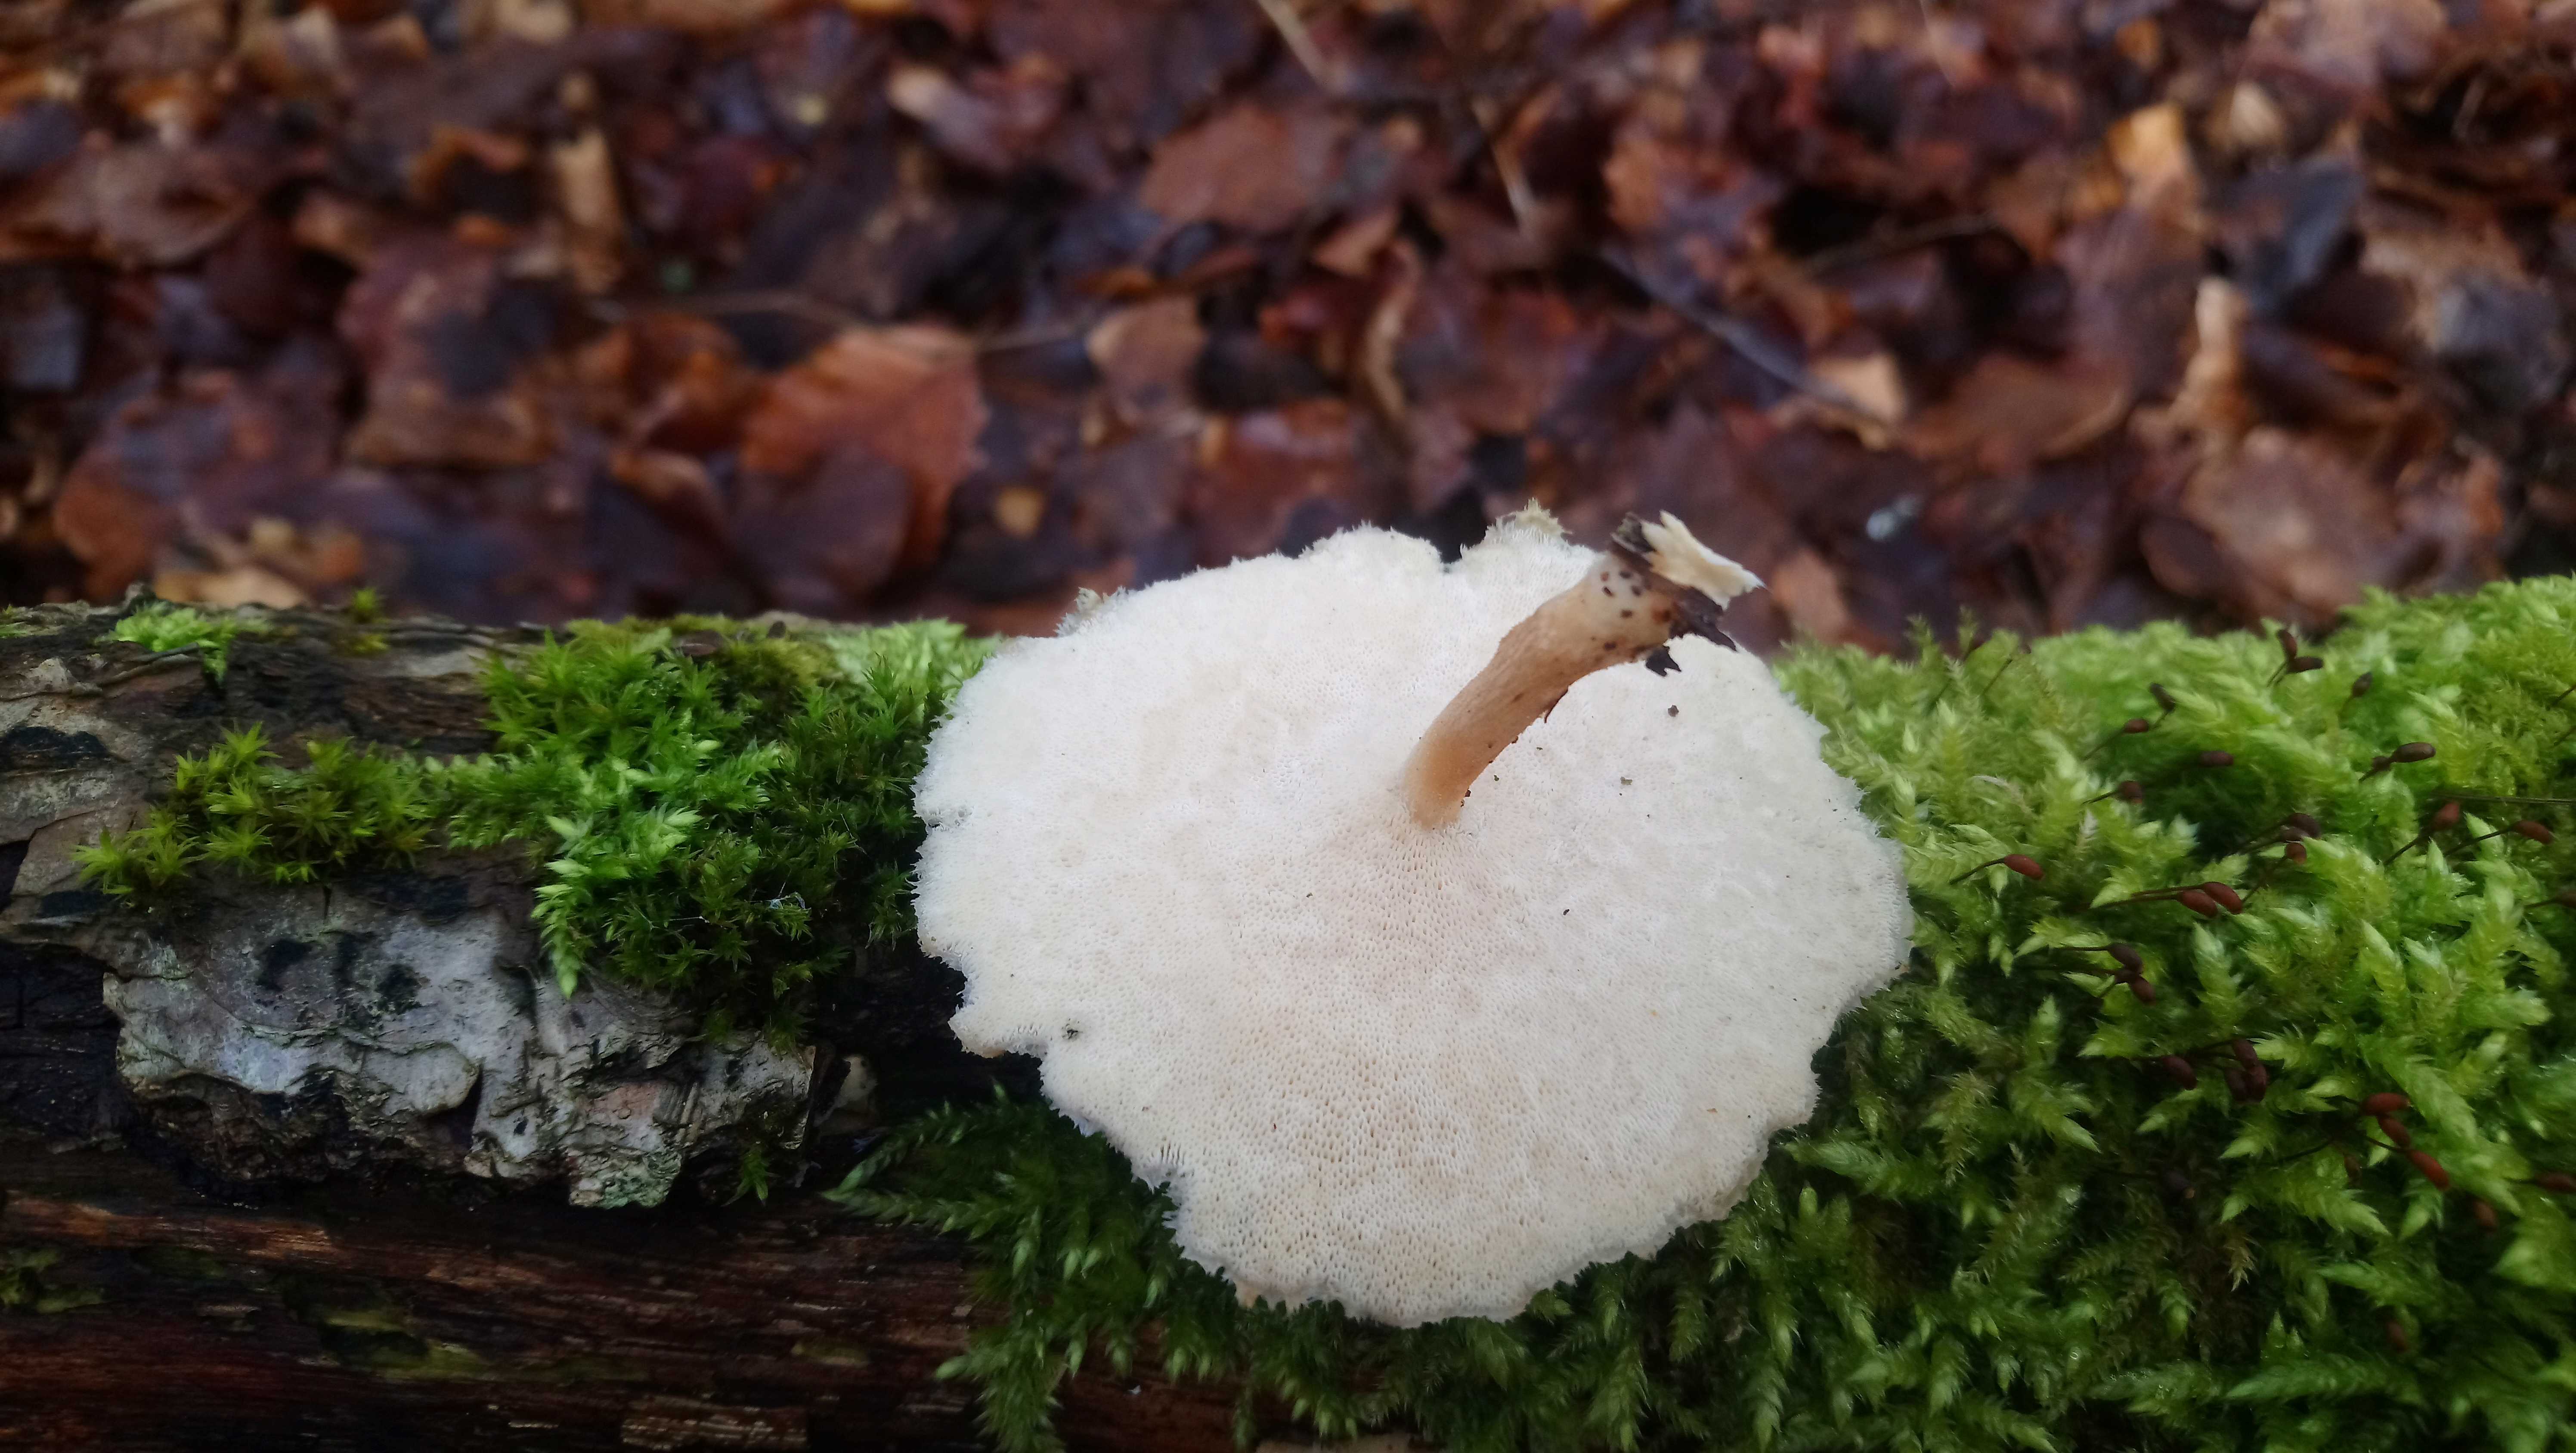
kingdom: Fungi
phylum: Basidiomycota
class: Agaricomycetes
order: Polyporales
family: Polyporaceae
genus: Lentinus
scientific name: Lentinus brumalis
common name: vinter-stilkporesvamp
